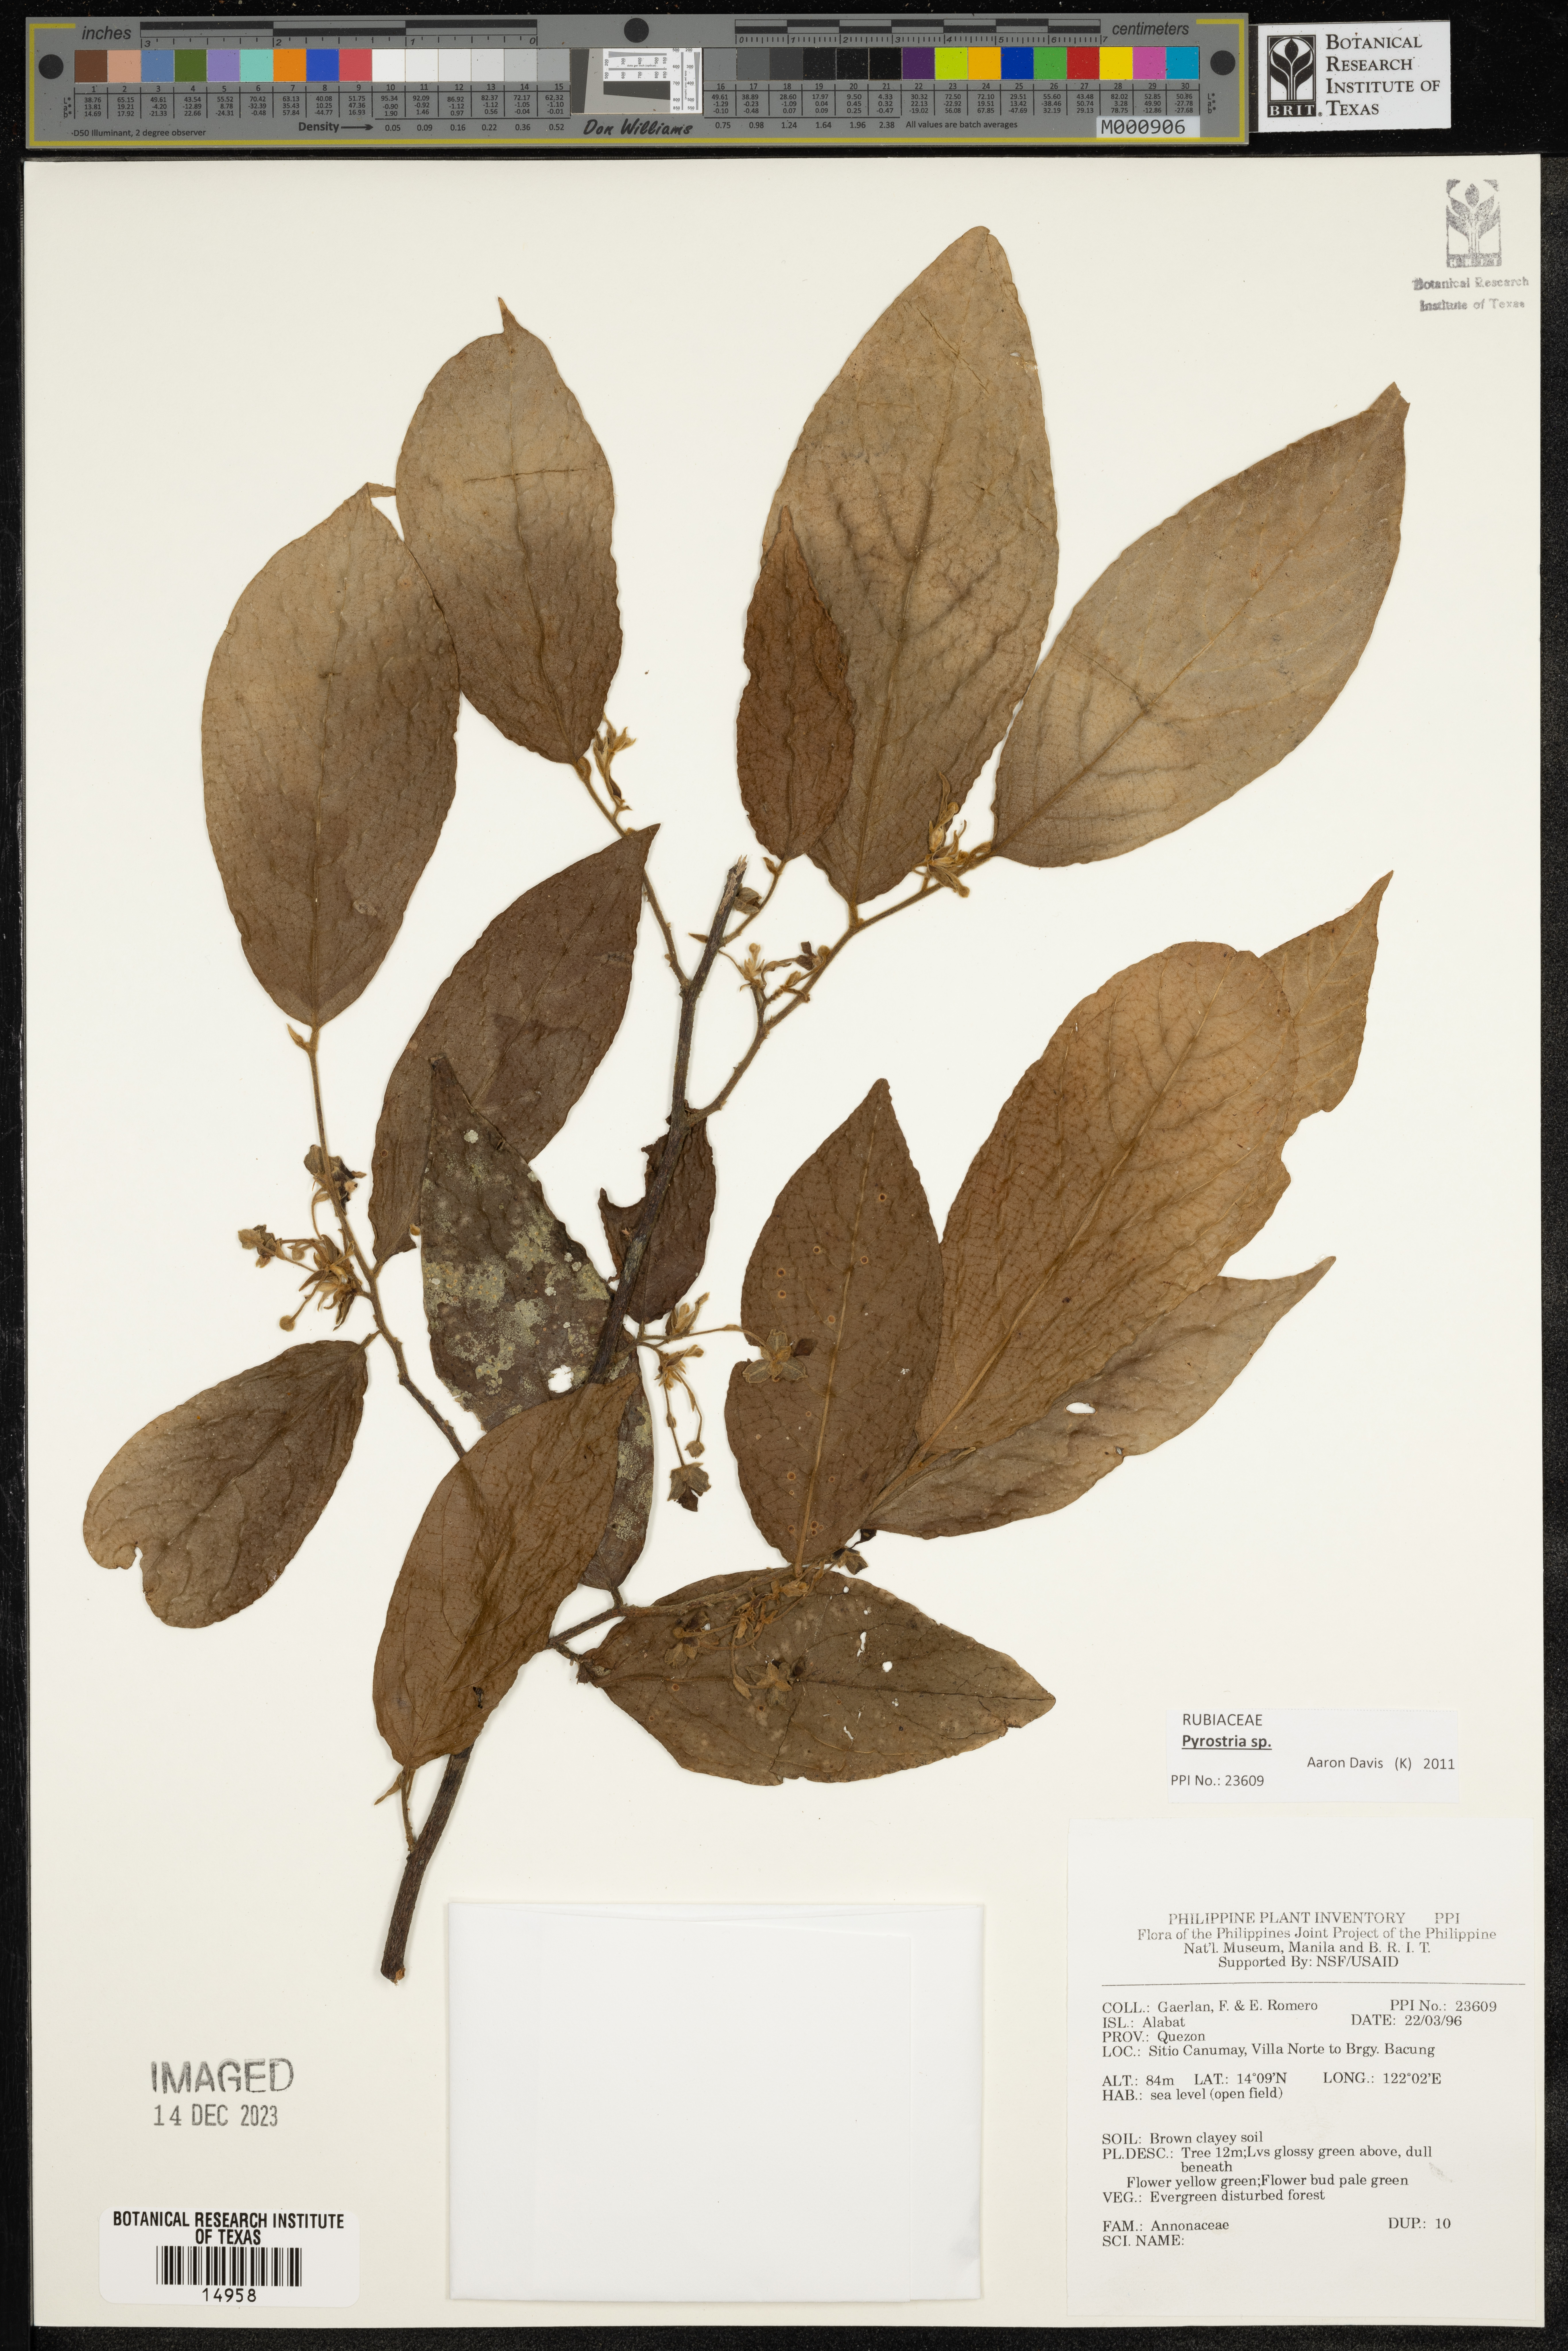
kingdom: Plantae
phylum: Tracheophyta
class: Magnoliopsida
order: Magnoliales
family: Annonaceae
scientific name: Annonaceae
